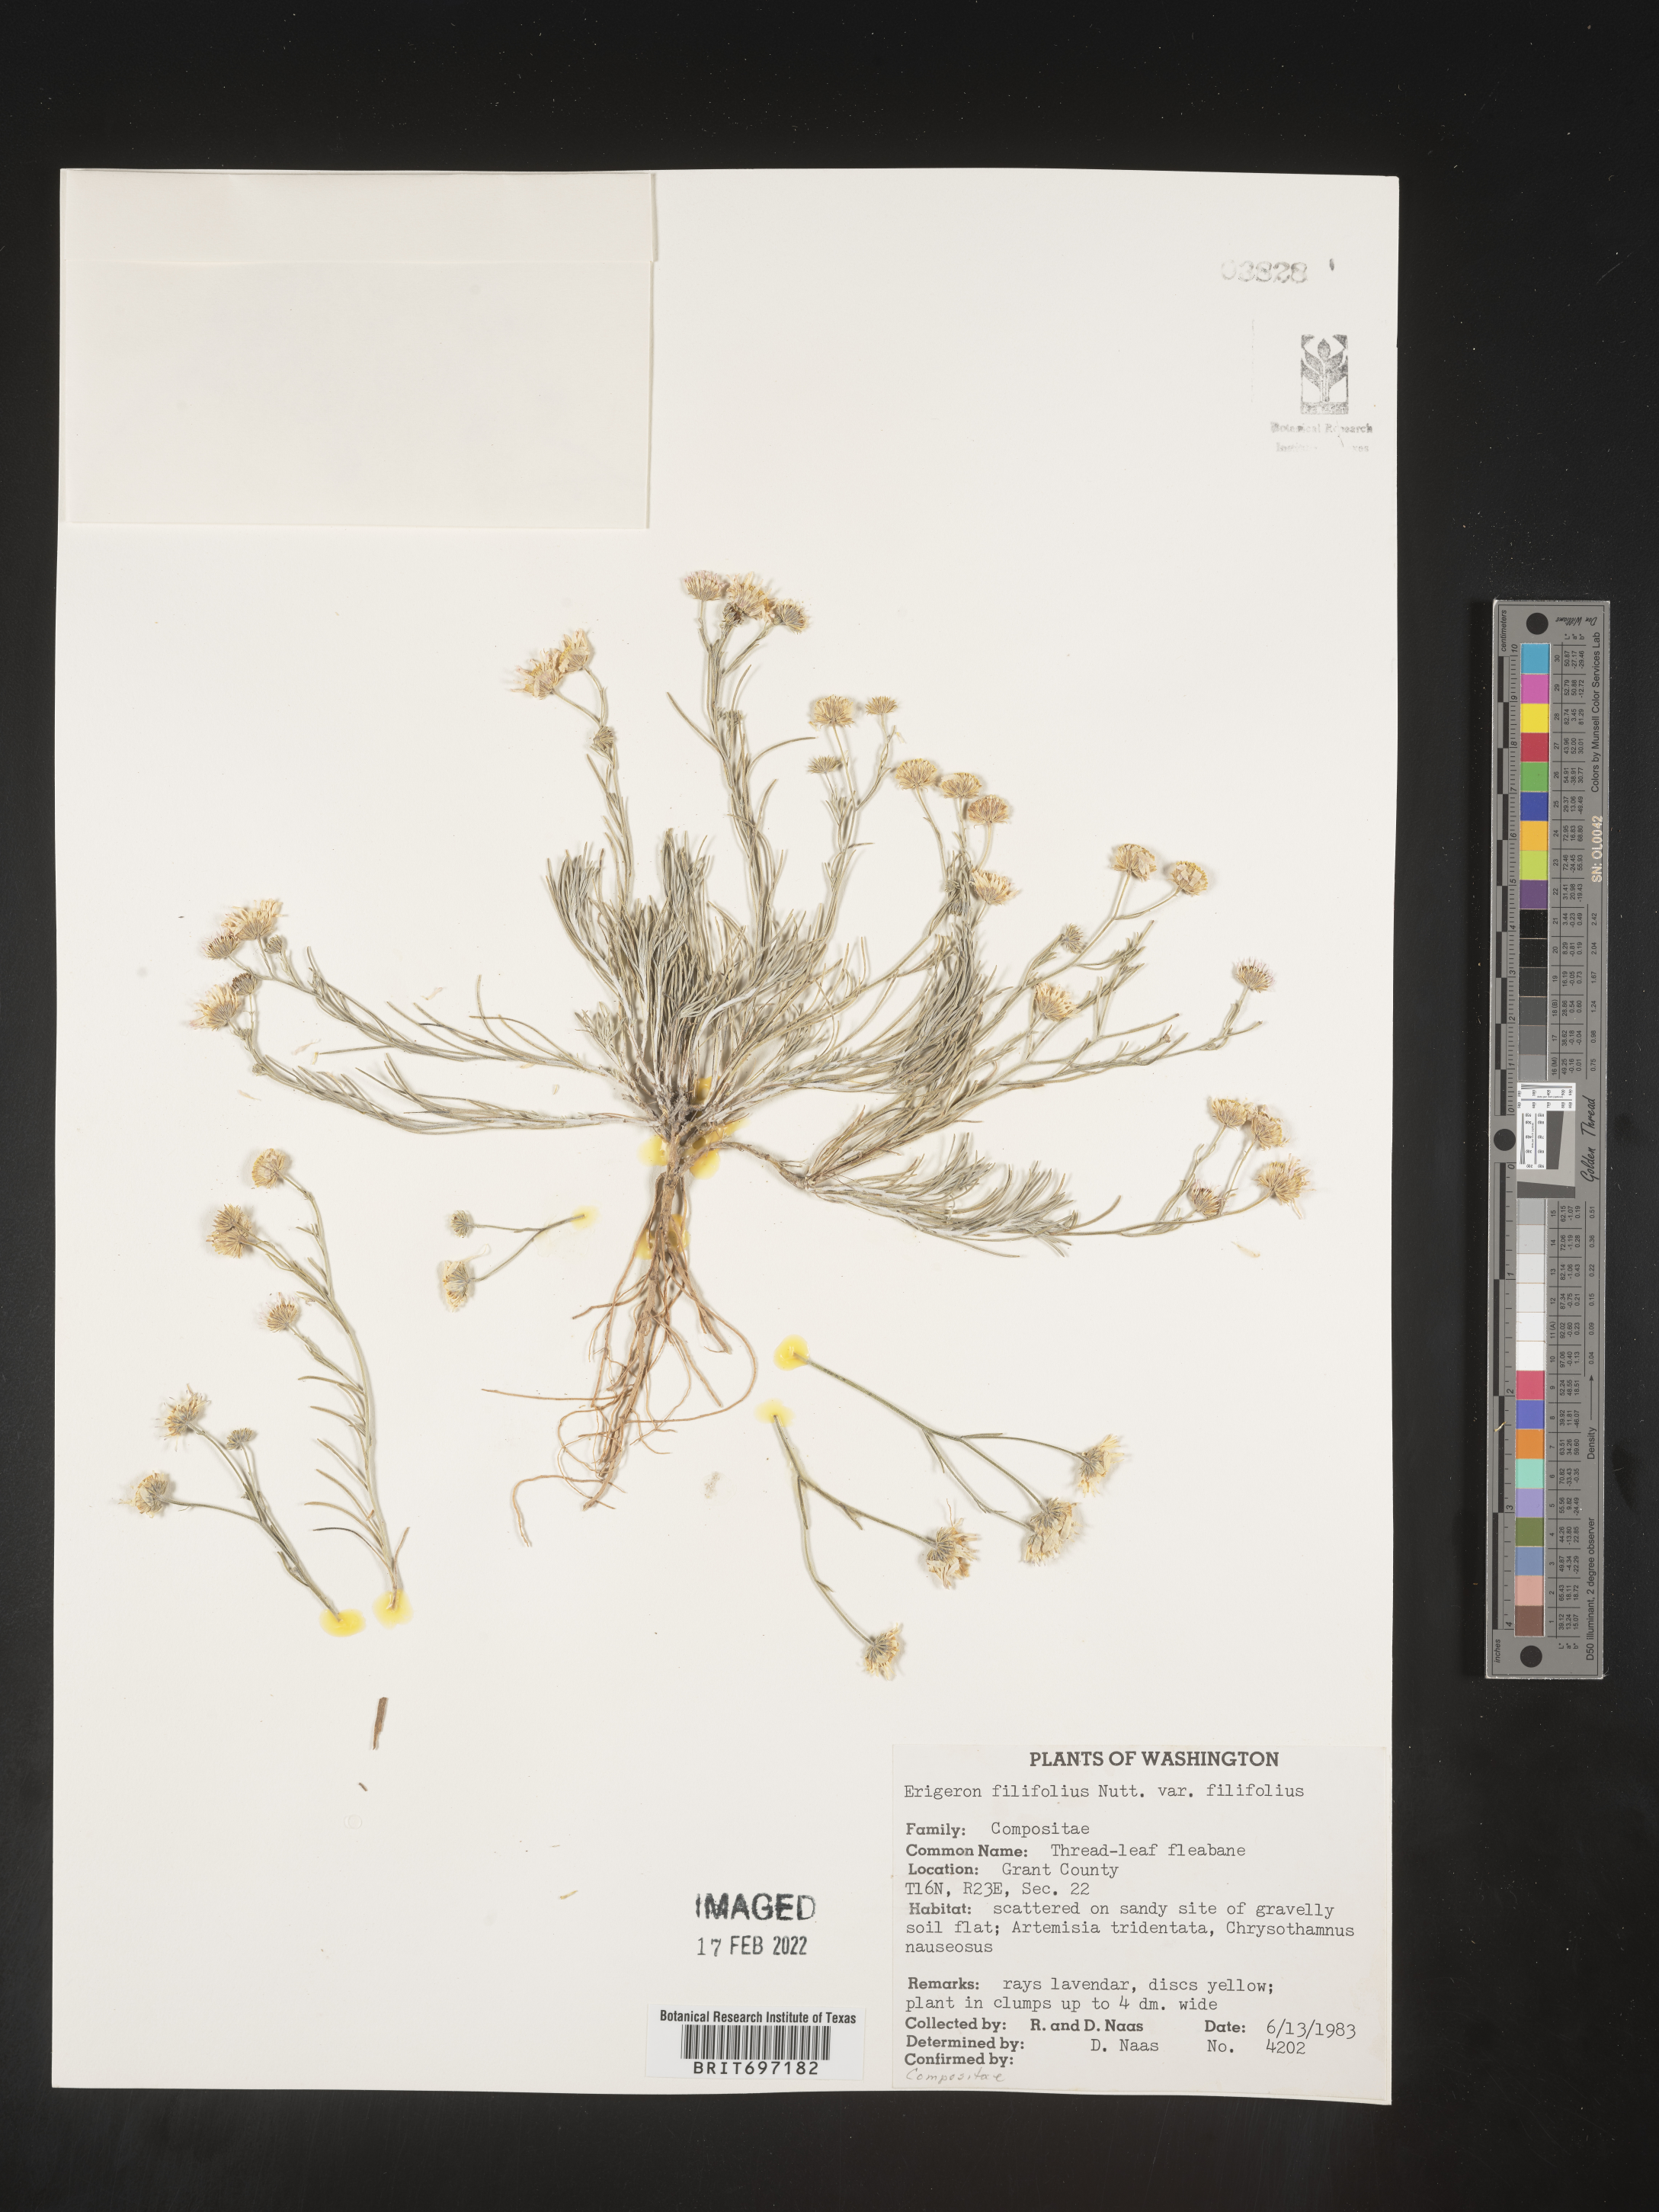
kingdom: Plantae
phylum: Tracheophyta
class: Magnoliopsida
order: Asterales
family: Asteraceae
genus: Erigeron
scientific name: Erigeron filifolius
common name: Threadleaf fleabane
